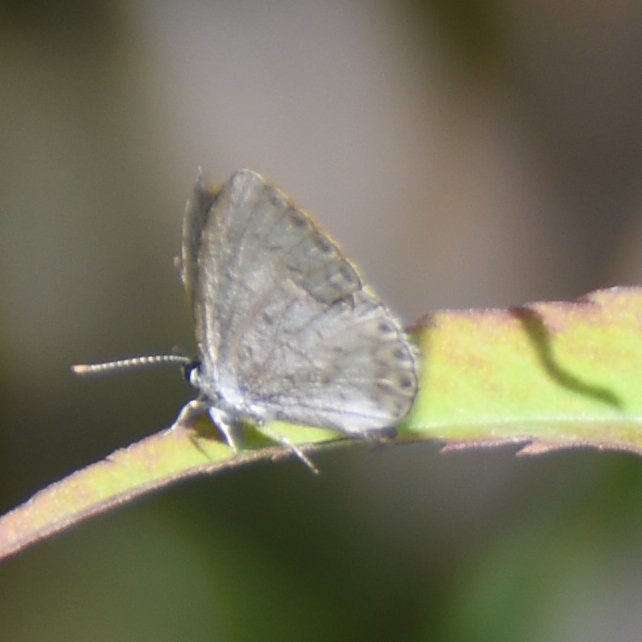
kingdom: Animalia
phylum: Arthropoda
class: Insecta
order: Lepidoptera
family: Lycaenidae
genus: Celastrina
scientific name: Celastrina lucia
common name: Northern Spring Azure
